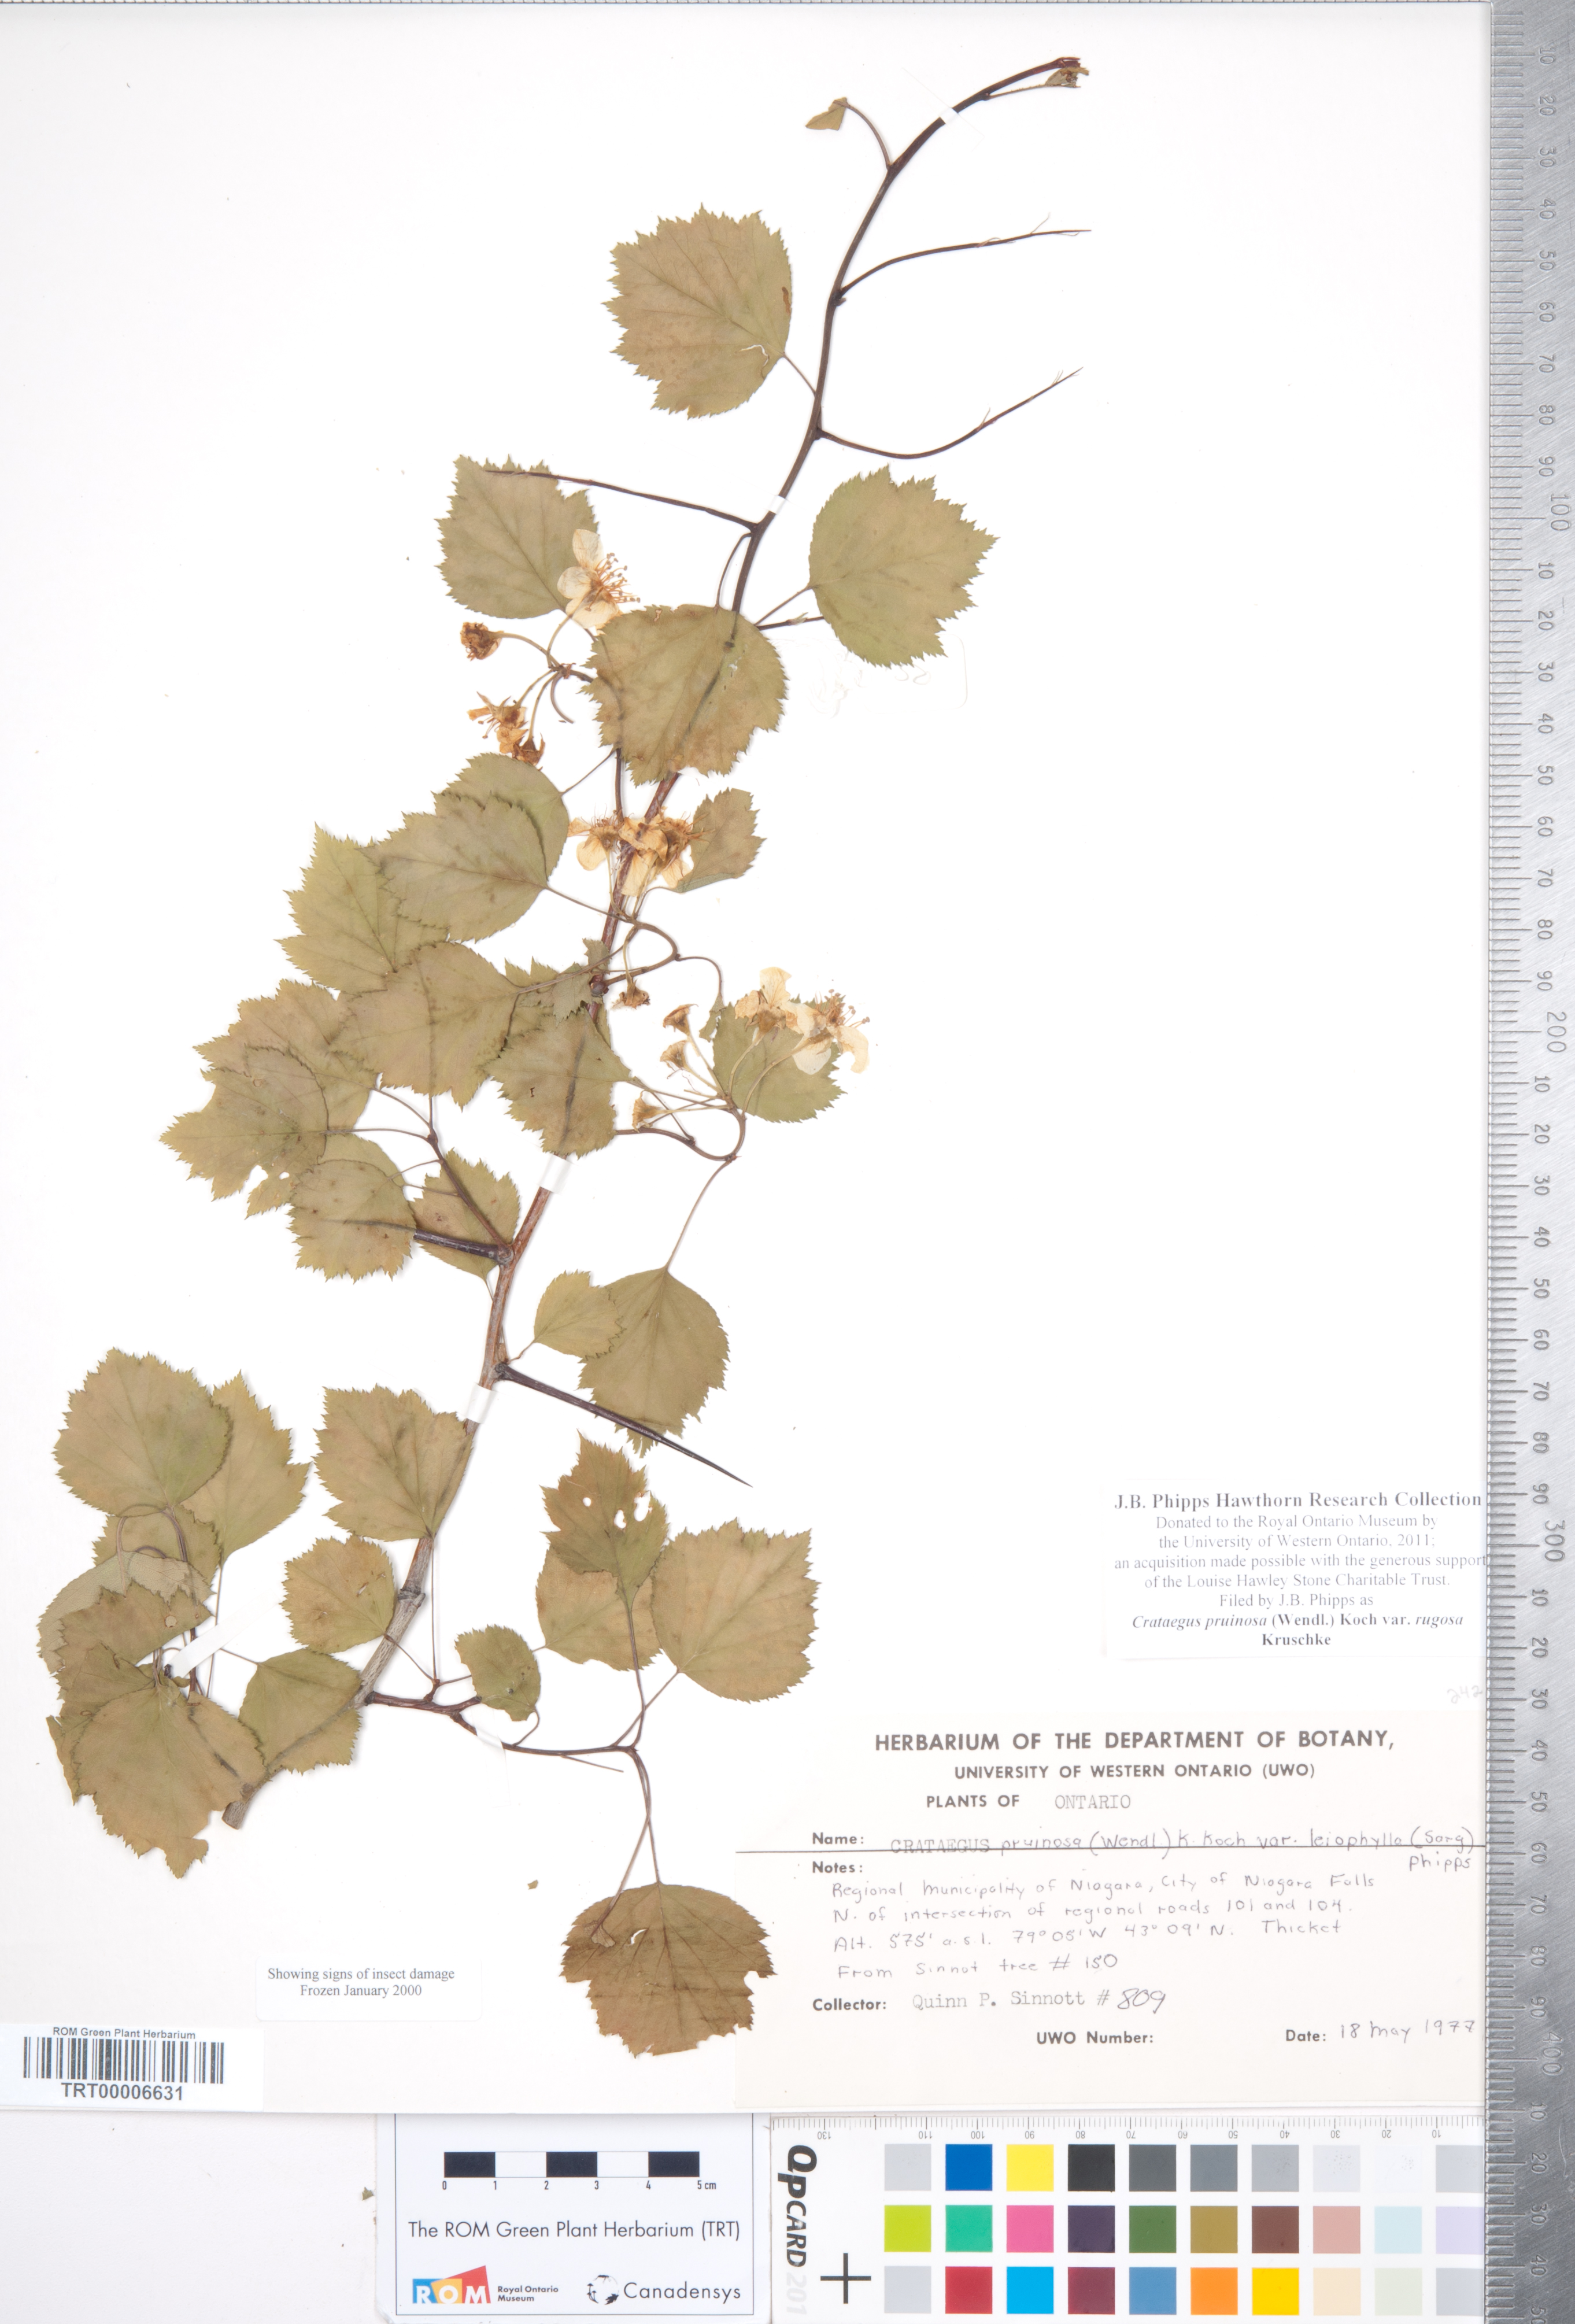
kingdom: Plantae
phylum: Tracheophyta
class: Magnoliopsida
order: Rosales
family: Rosaceae
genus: Crataegus
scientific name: Crataegus pruinosa
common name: Waxy-fruit hawthorn
